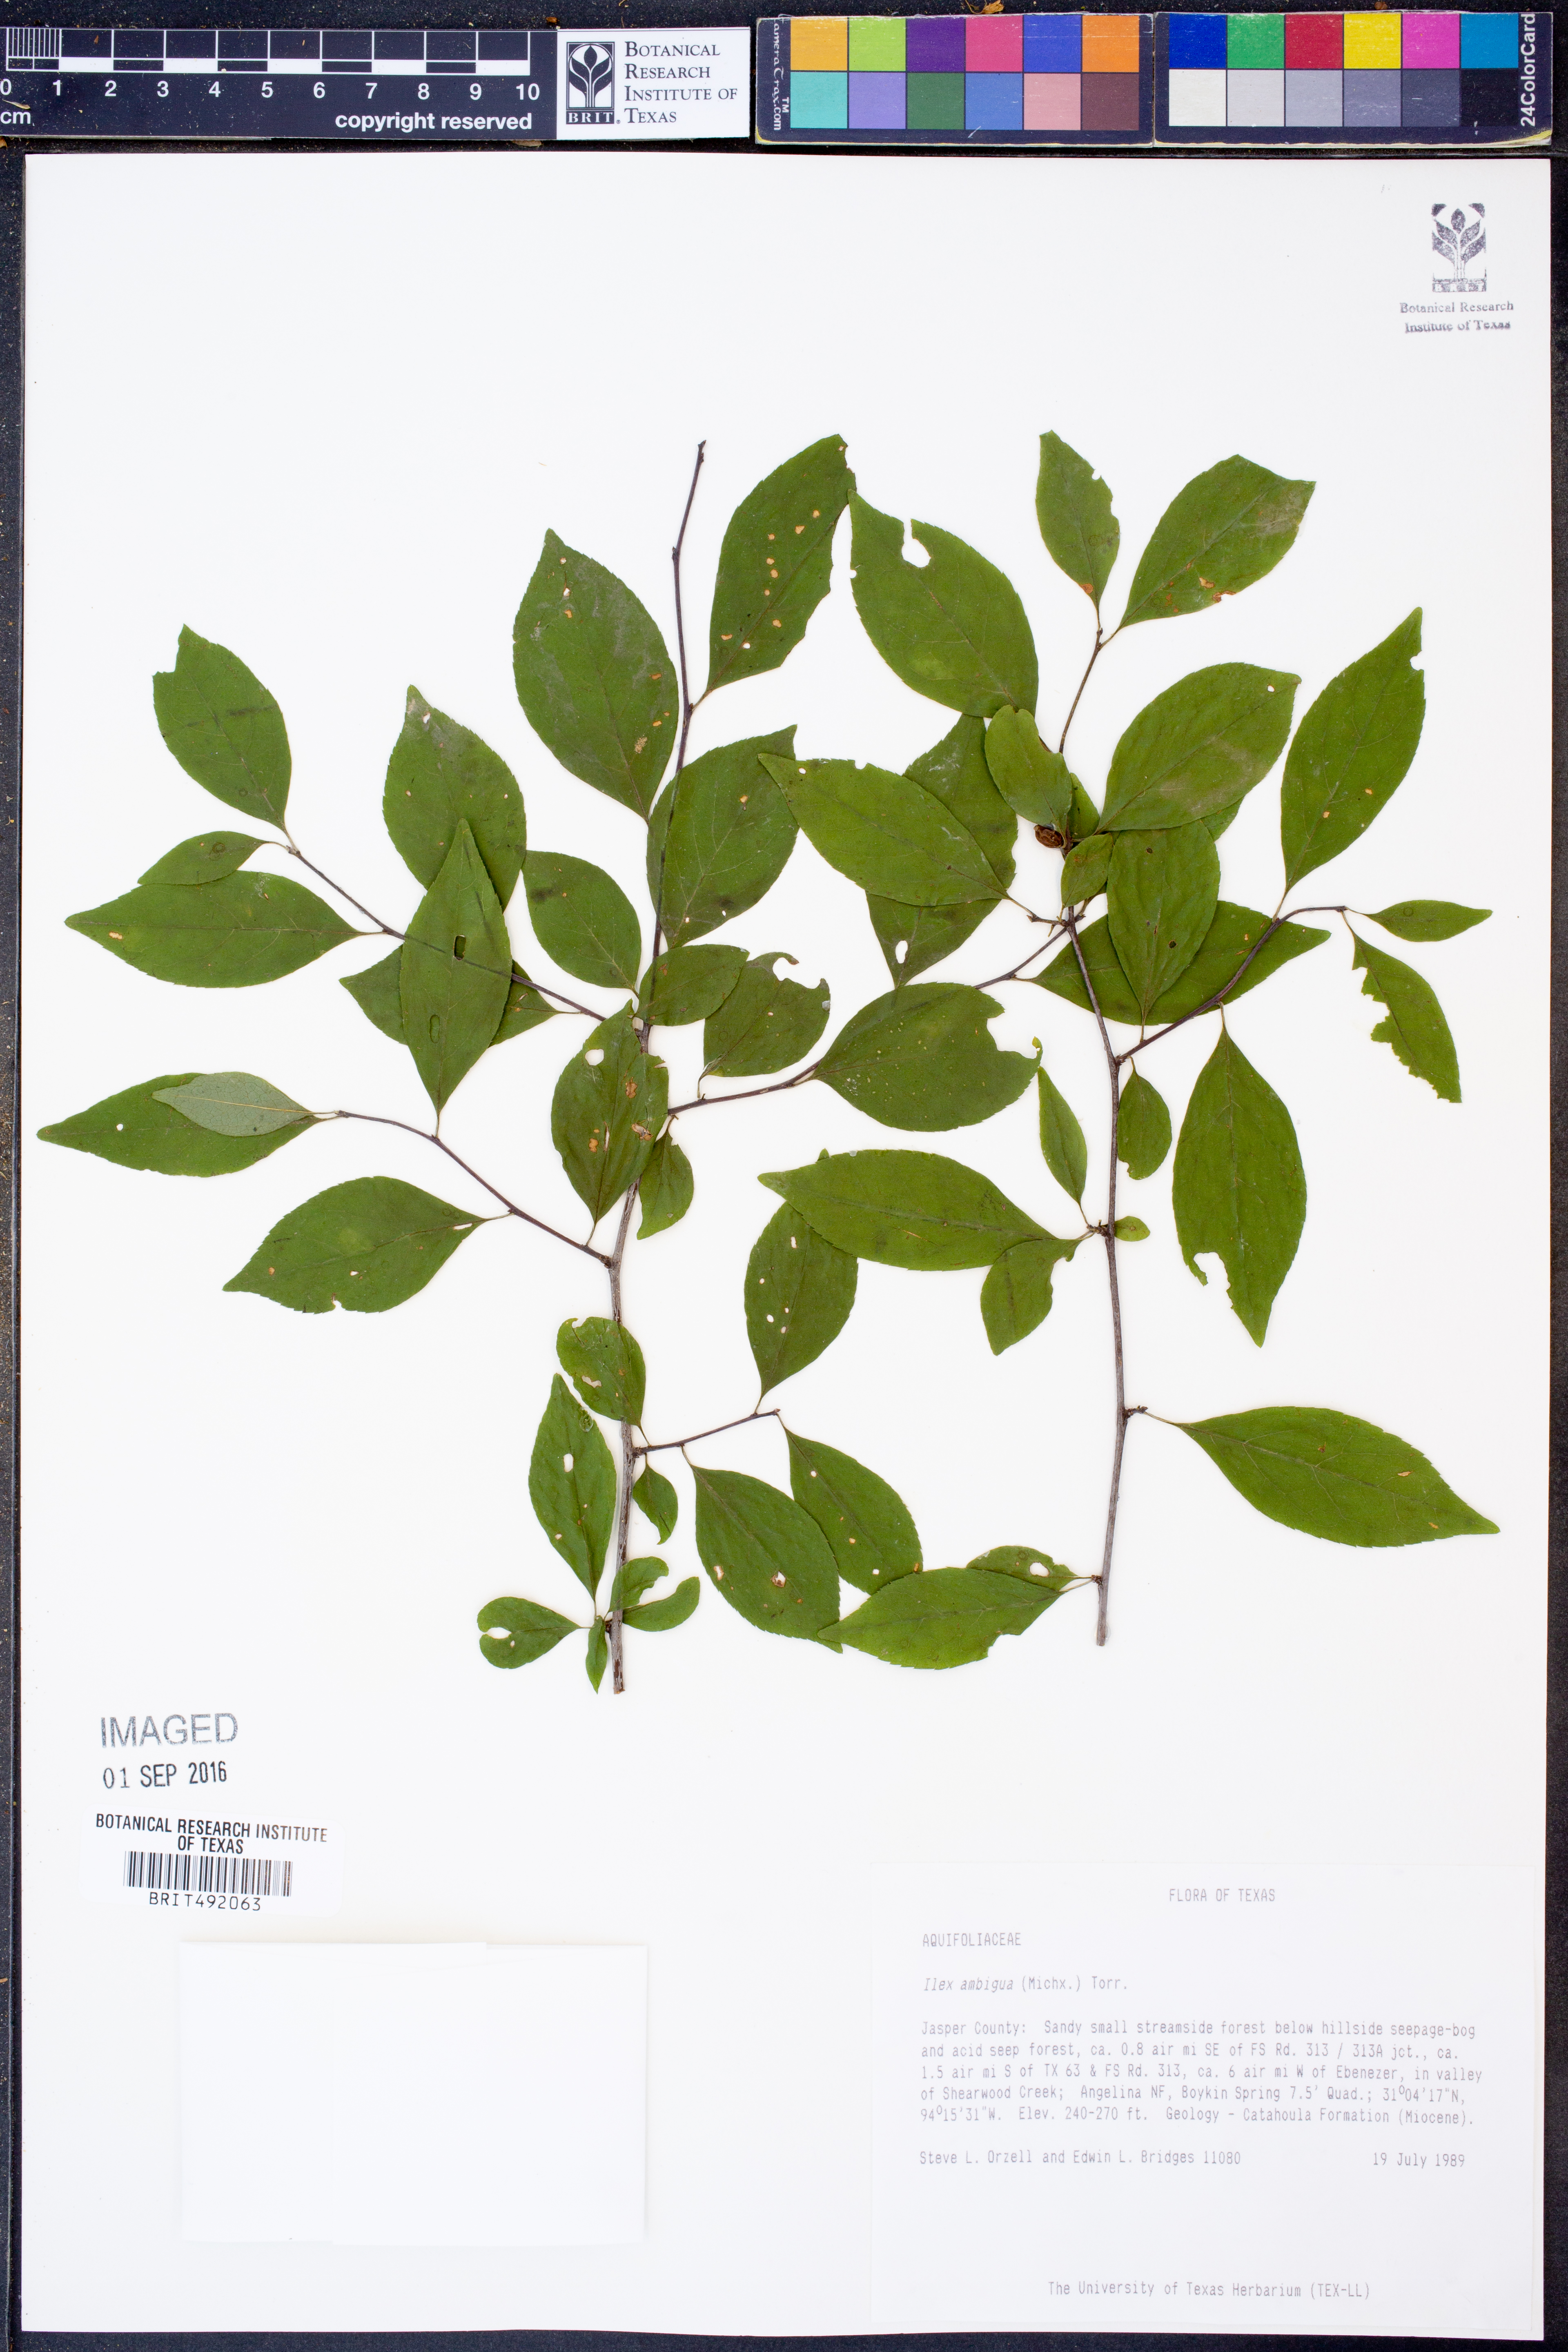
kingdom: Plantae
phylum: Tracheophyta
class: Magnoliopsida
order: Aquifoliales
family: Aquifoliaceae
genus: Ilex
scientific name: Ilex ambigua
